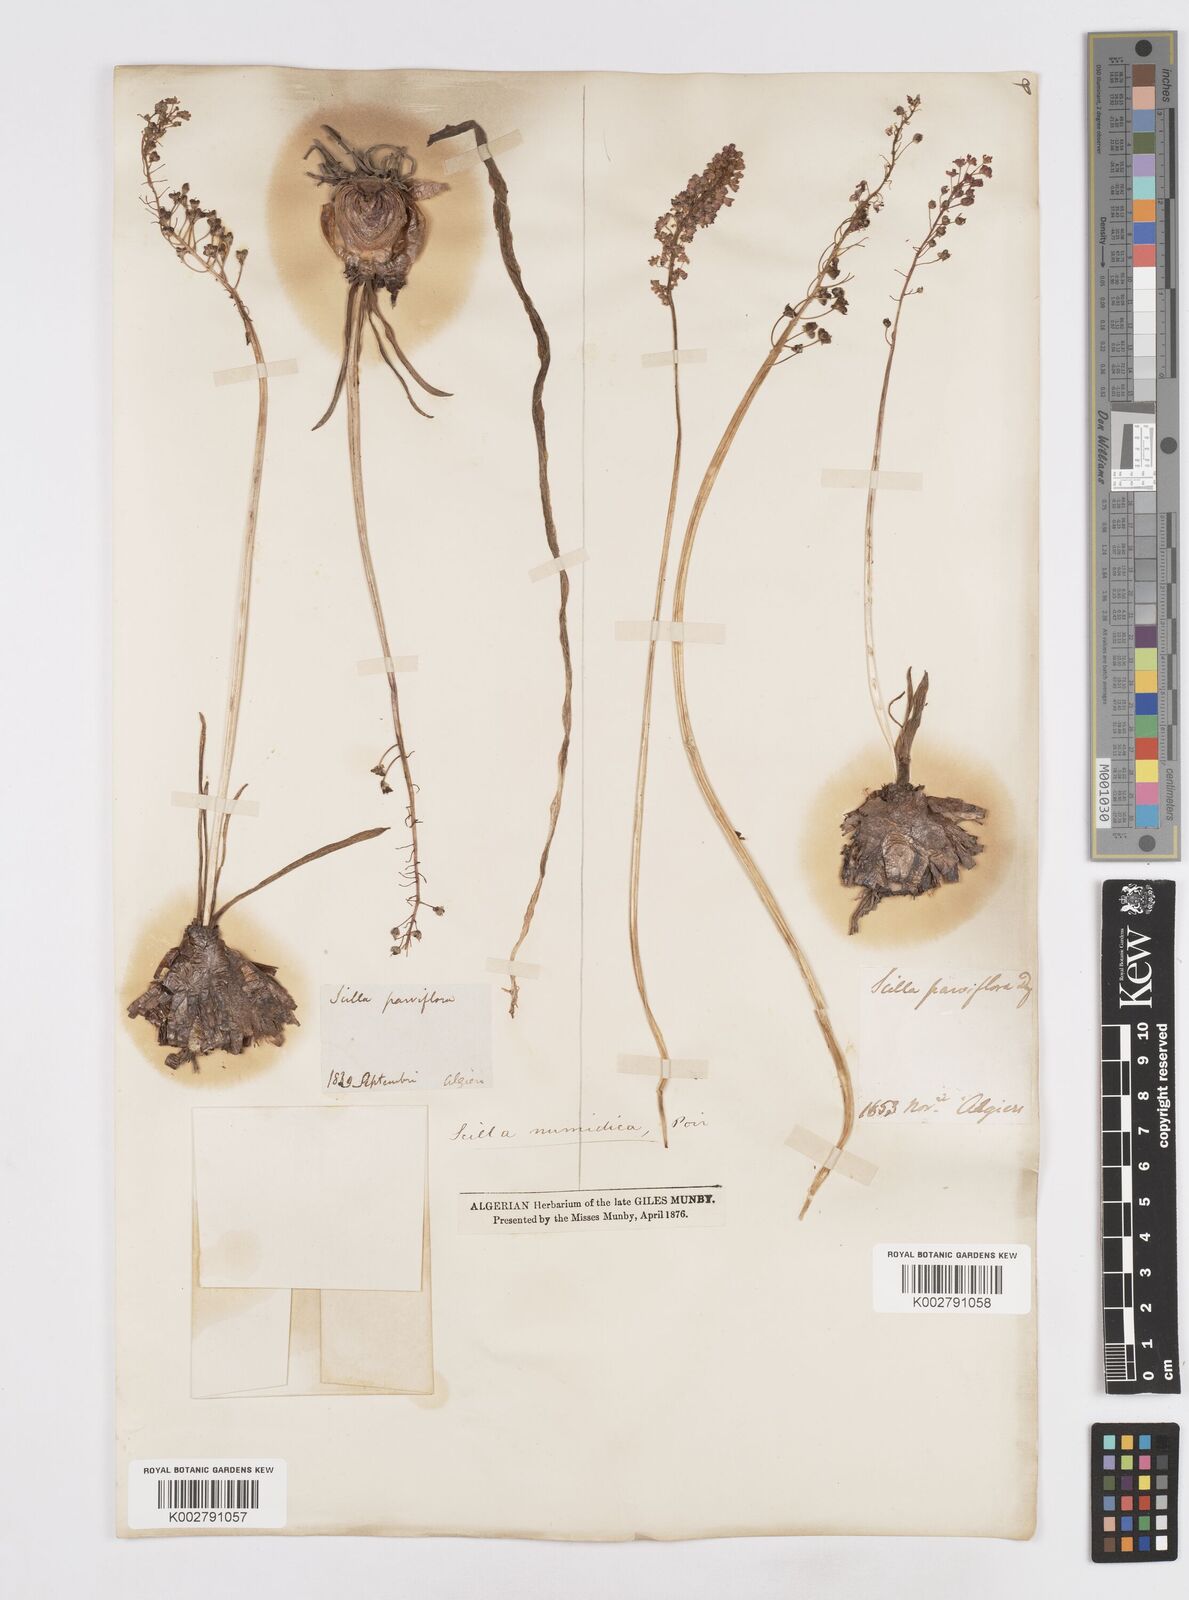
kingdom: Plantae
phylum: Tracheophyta
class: Liliopsida
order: Asparagales
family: Asparagaceae
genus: Barnardia
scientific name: Barnardia numidica
